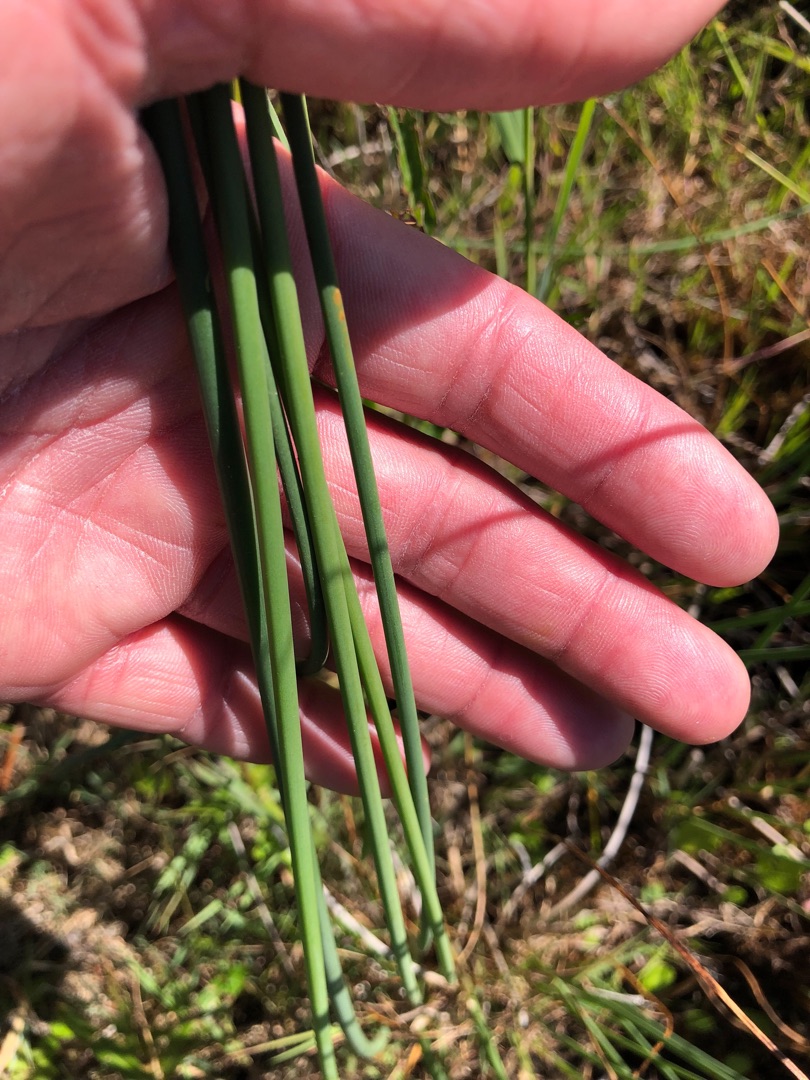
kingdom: Plantae
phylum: Tracheophyta
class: Liliopsida
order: Poales
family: Cyperaceae
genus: Schoenoplectus
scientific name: Schoenoplectus tabernaemontani
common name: Blågrøn kogleaks
